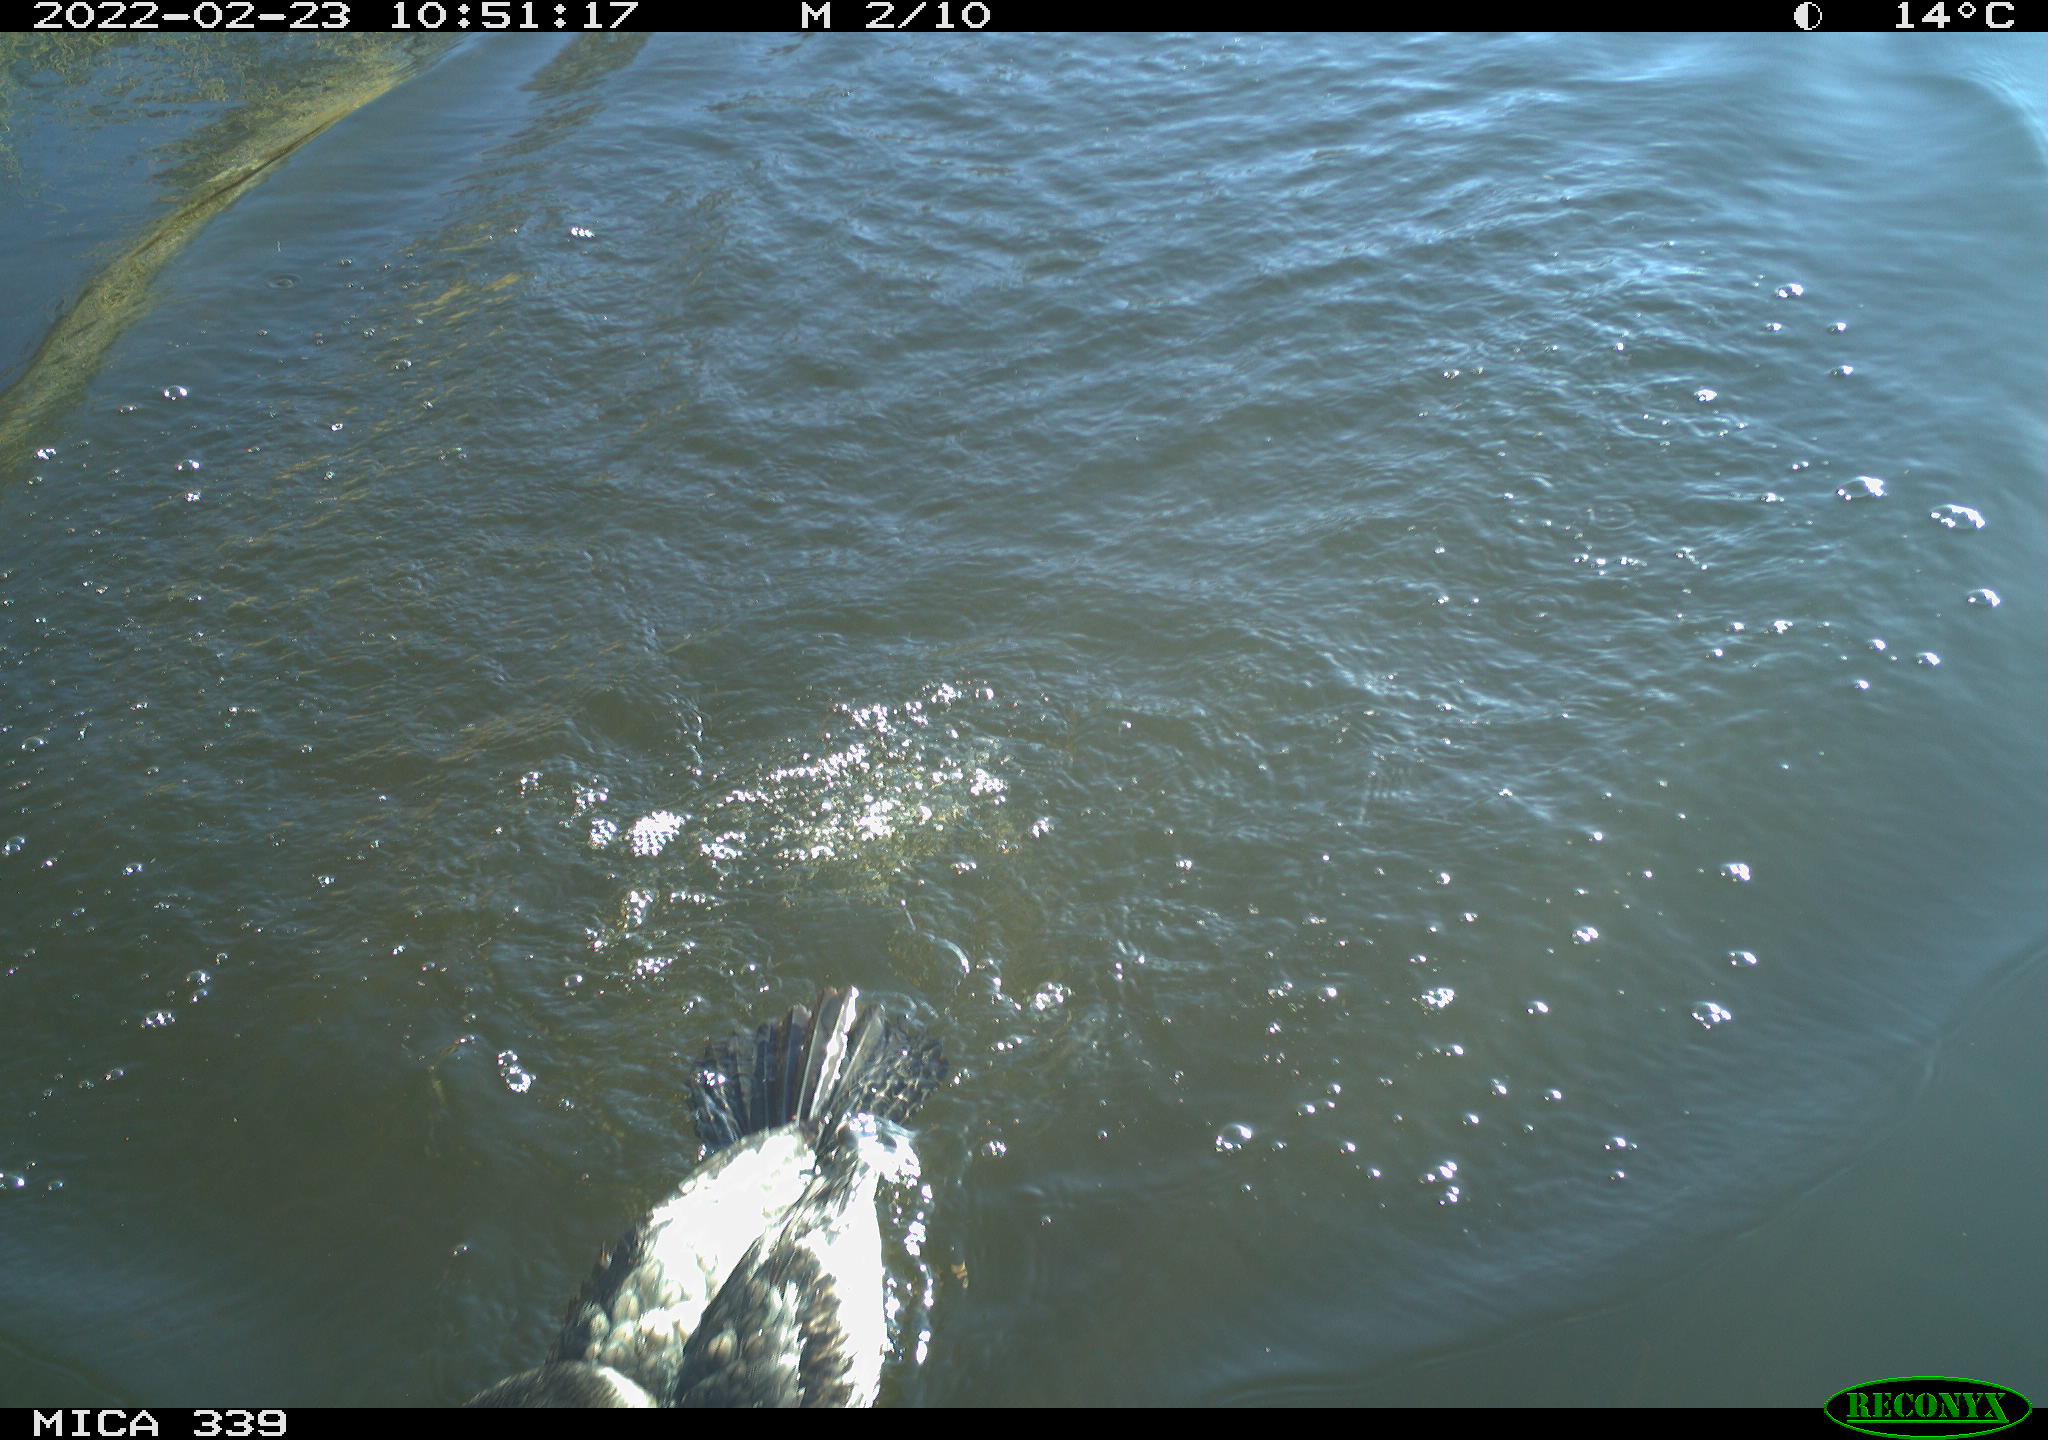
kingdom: Animalia
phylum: Chordata
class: Aves
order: Suliformes
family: Phalacrocoracidae
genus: Phalacrocorax
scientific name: Phalacrocorax carbo
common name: Great cormorant
